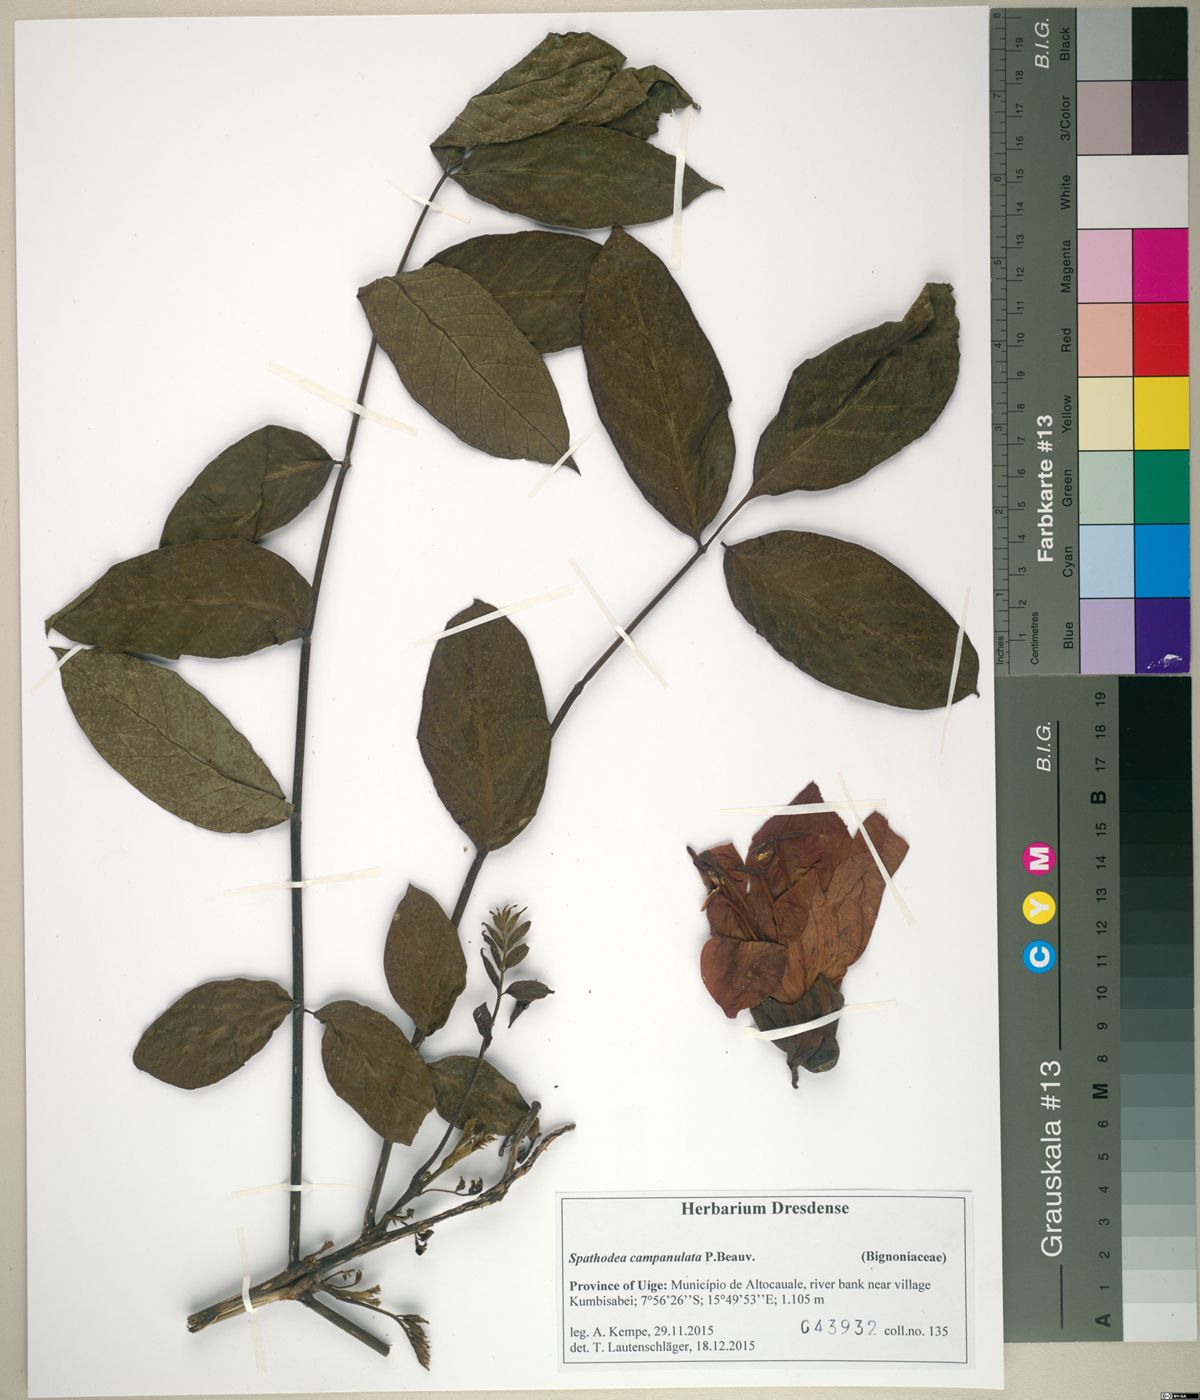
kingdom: Plantae
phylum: Tracheophyta
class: Magnoliopsida
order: Lamiales
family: Bignoniaceae
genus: Spathodea
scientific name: Spathodea campanulata
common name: African tuliptree
